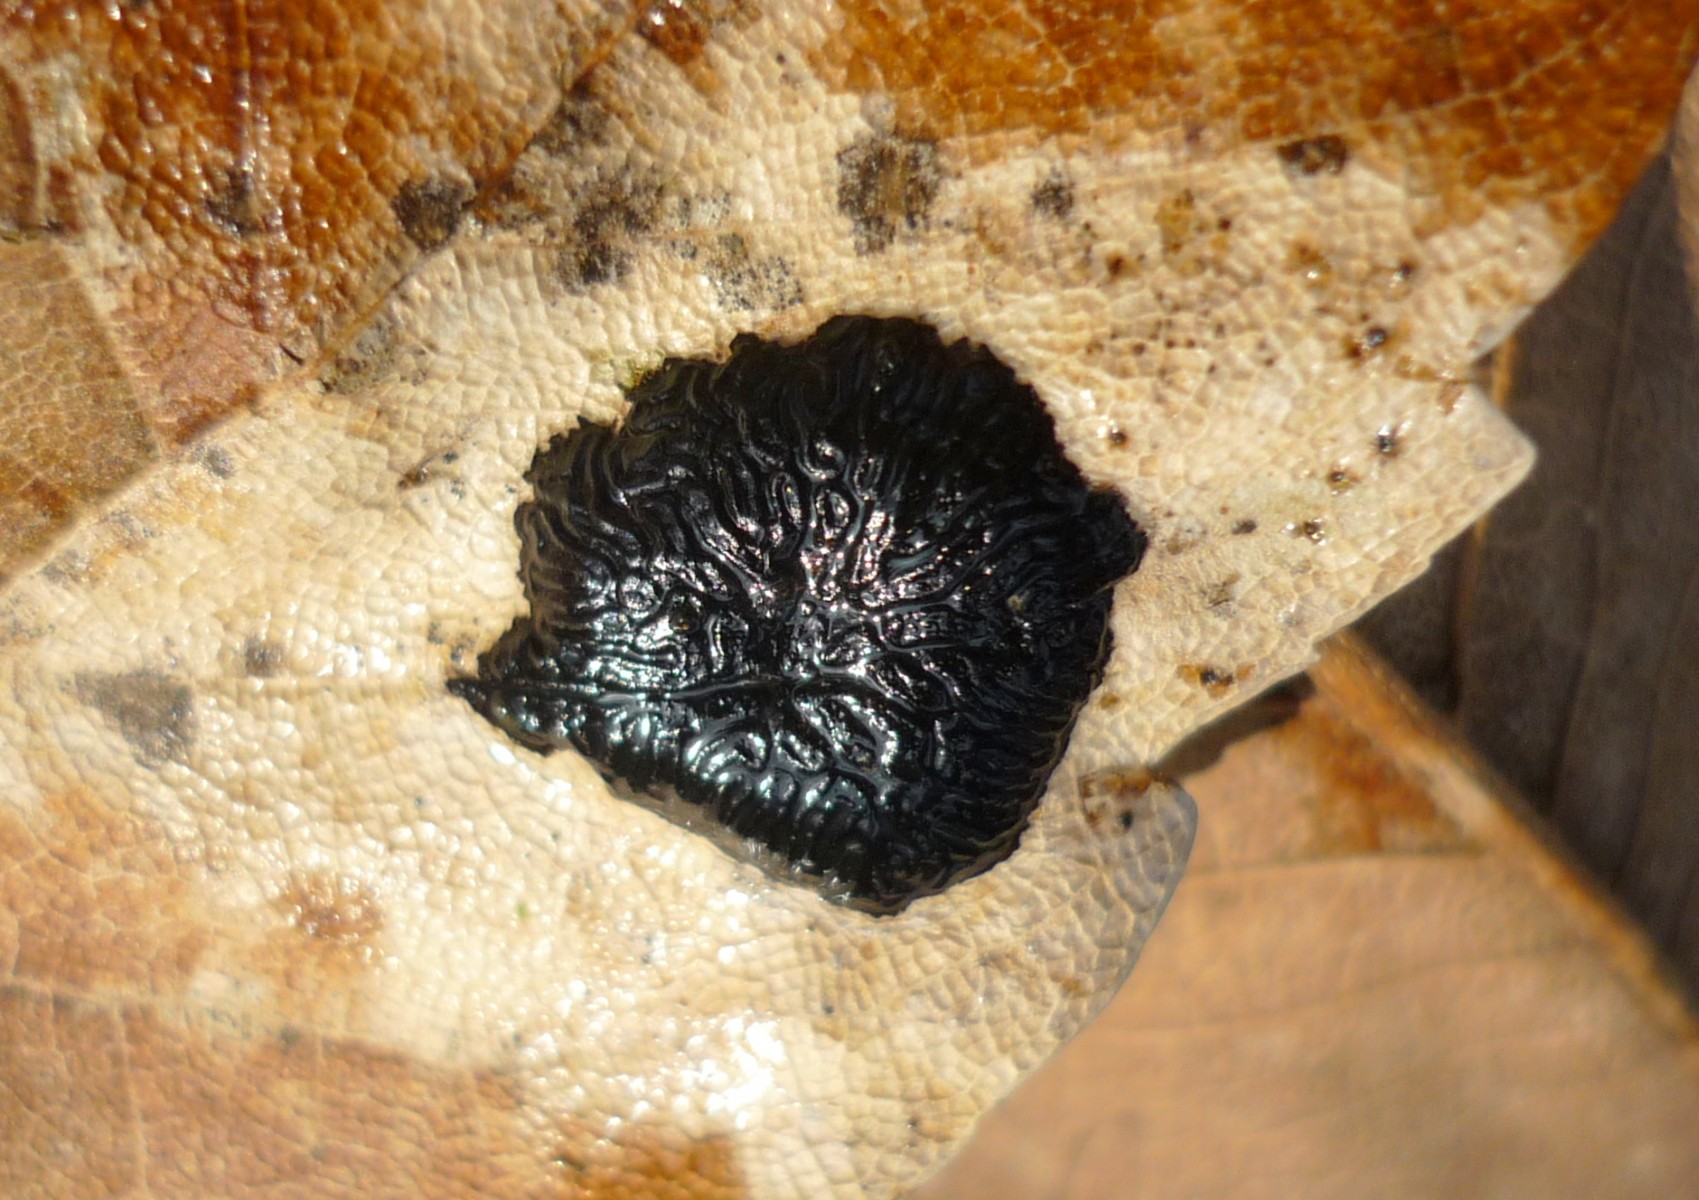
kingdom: Fungi
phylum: Ascomycota
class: Leotiomycetes
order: Rhytismatales
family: Rhytismataceae
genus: Rhytisma
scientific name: Rhytisma acerinum
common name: ahorn-rynkeplet
